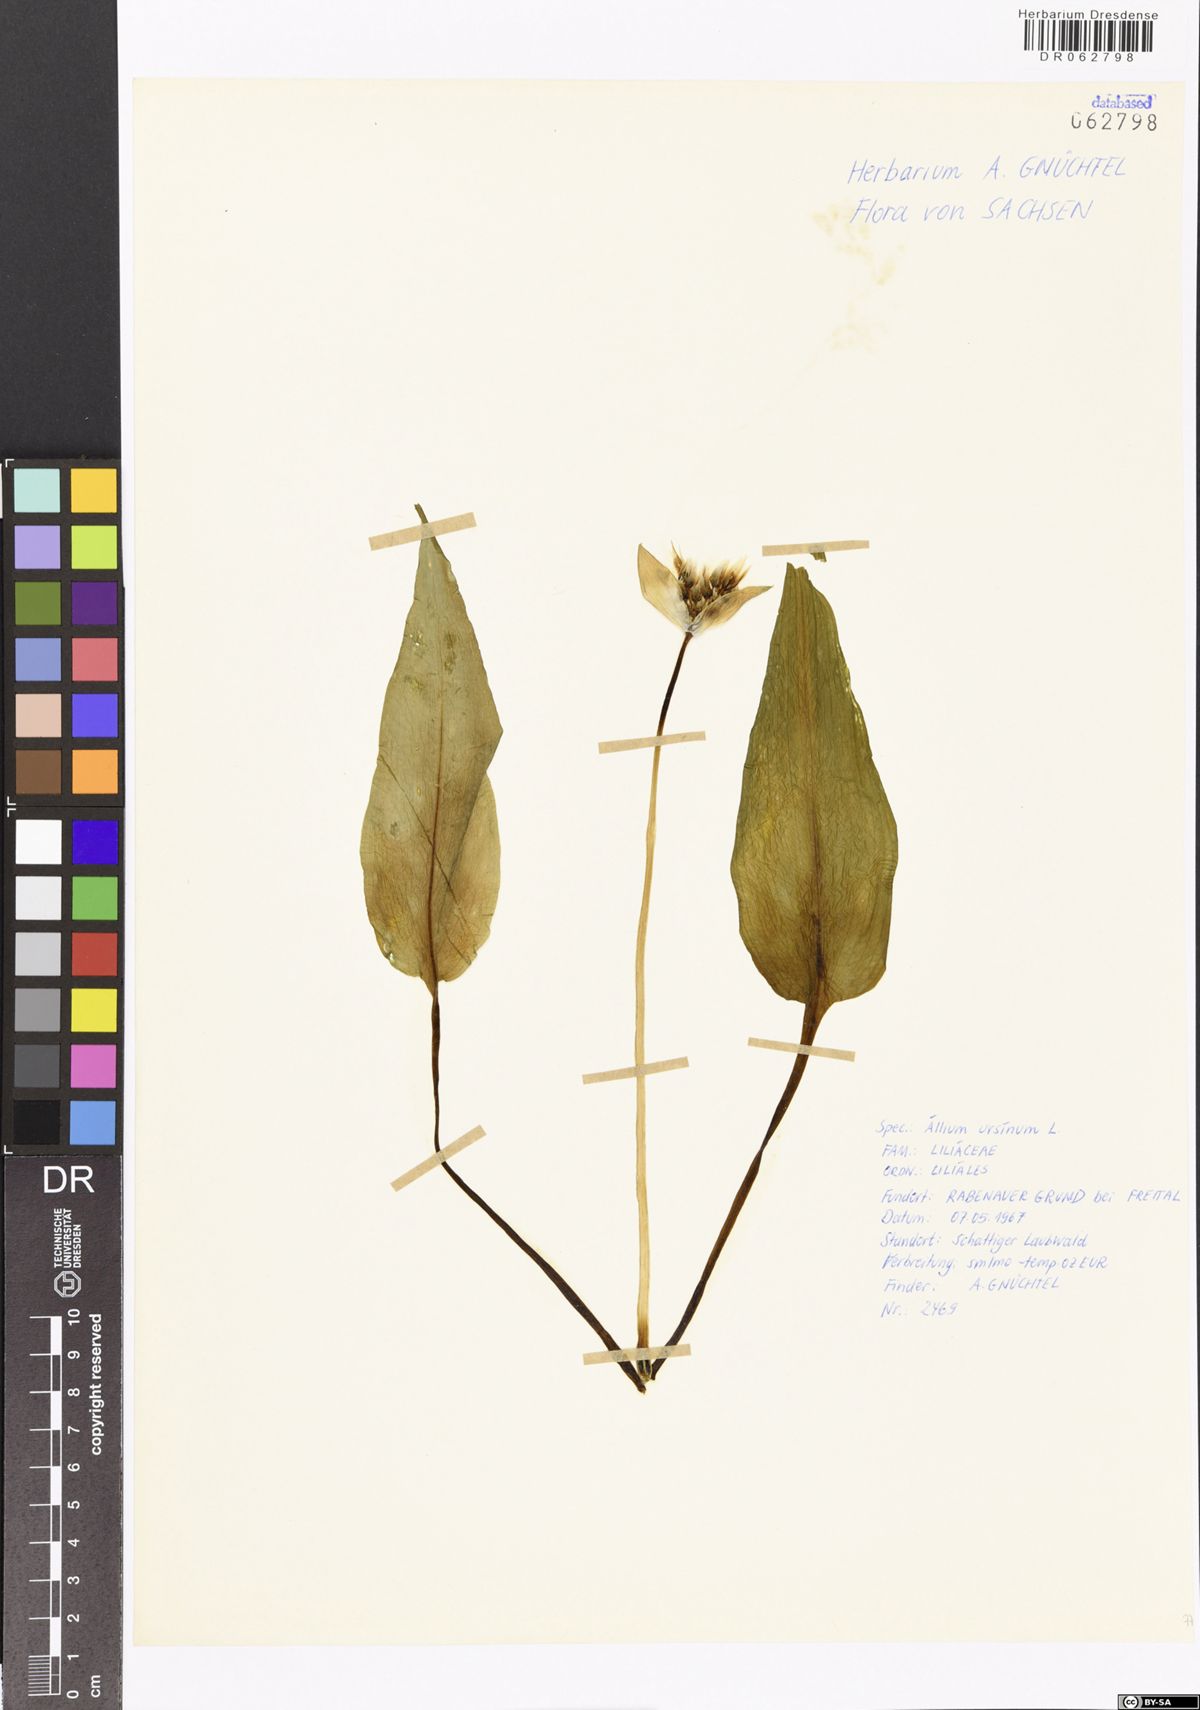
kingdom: Plantae
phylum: Tracheophyta
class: Liliopsida
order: Asparagales
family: Amaryllidaceae
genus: Allium
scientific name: Allium ursinum
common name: Ramsons
